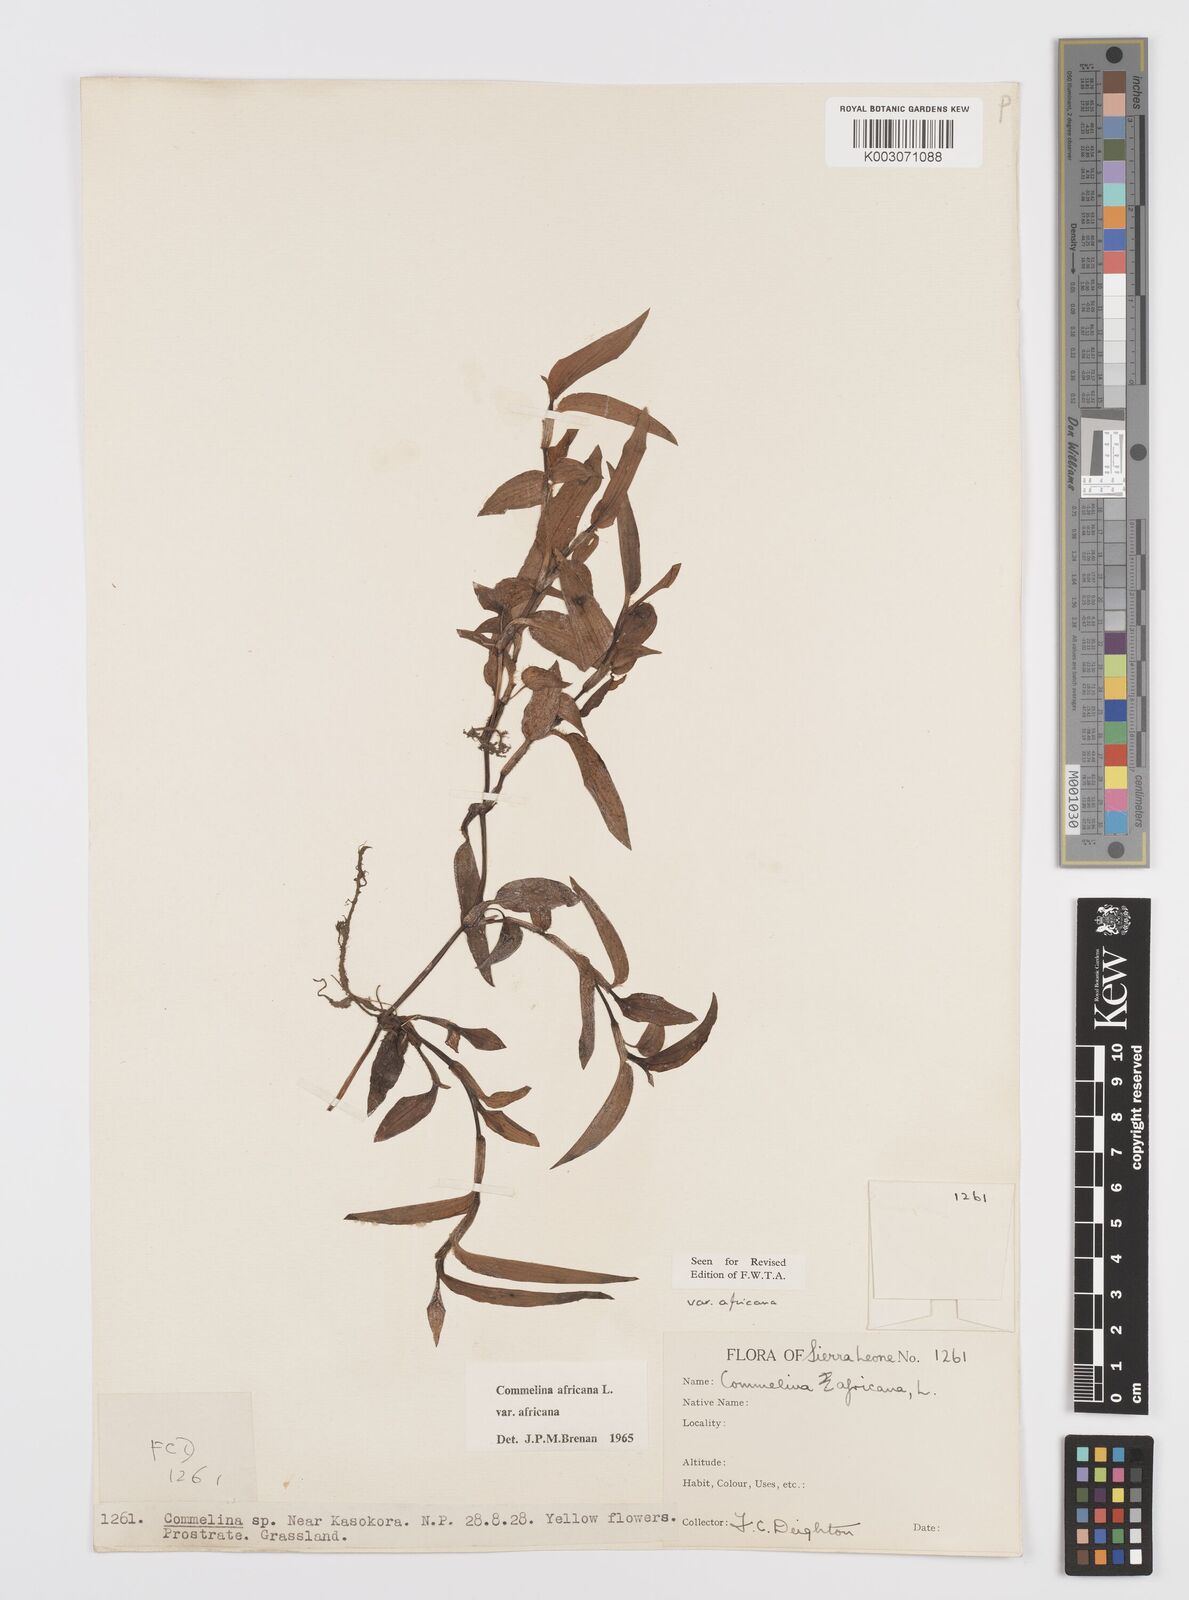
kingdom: Plantae
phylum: Tracheophyta
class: Liliopsida
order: Commelinales
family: Commelinaceae
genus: Commelina
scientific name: Commelina africana
